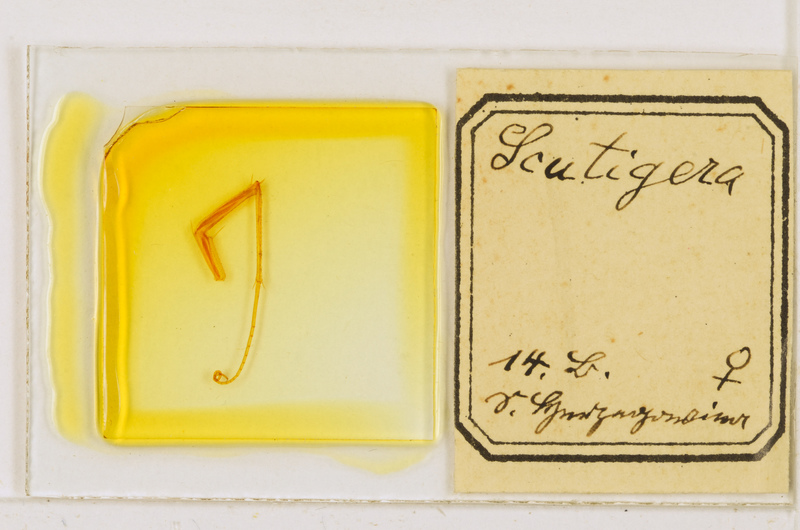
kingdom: Animalia
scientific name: Animalia
